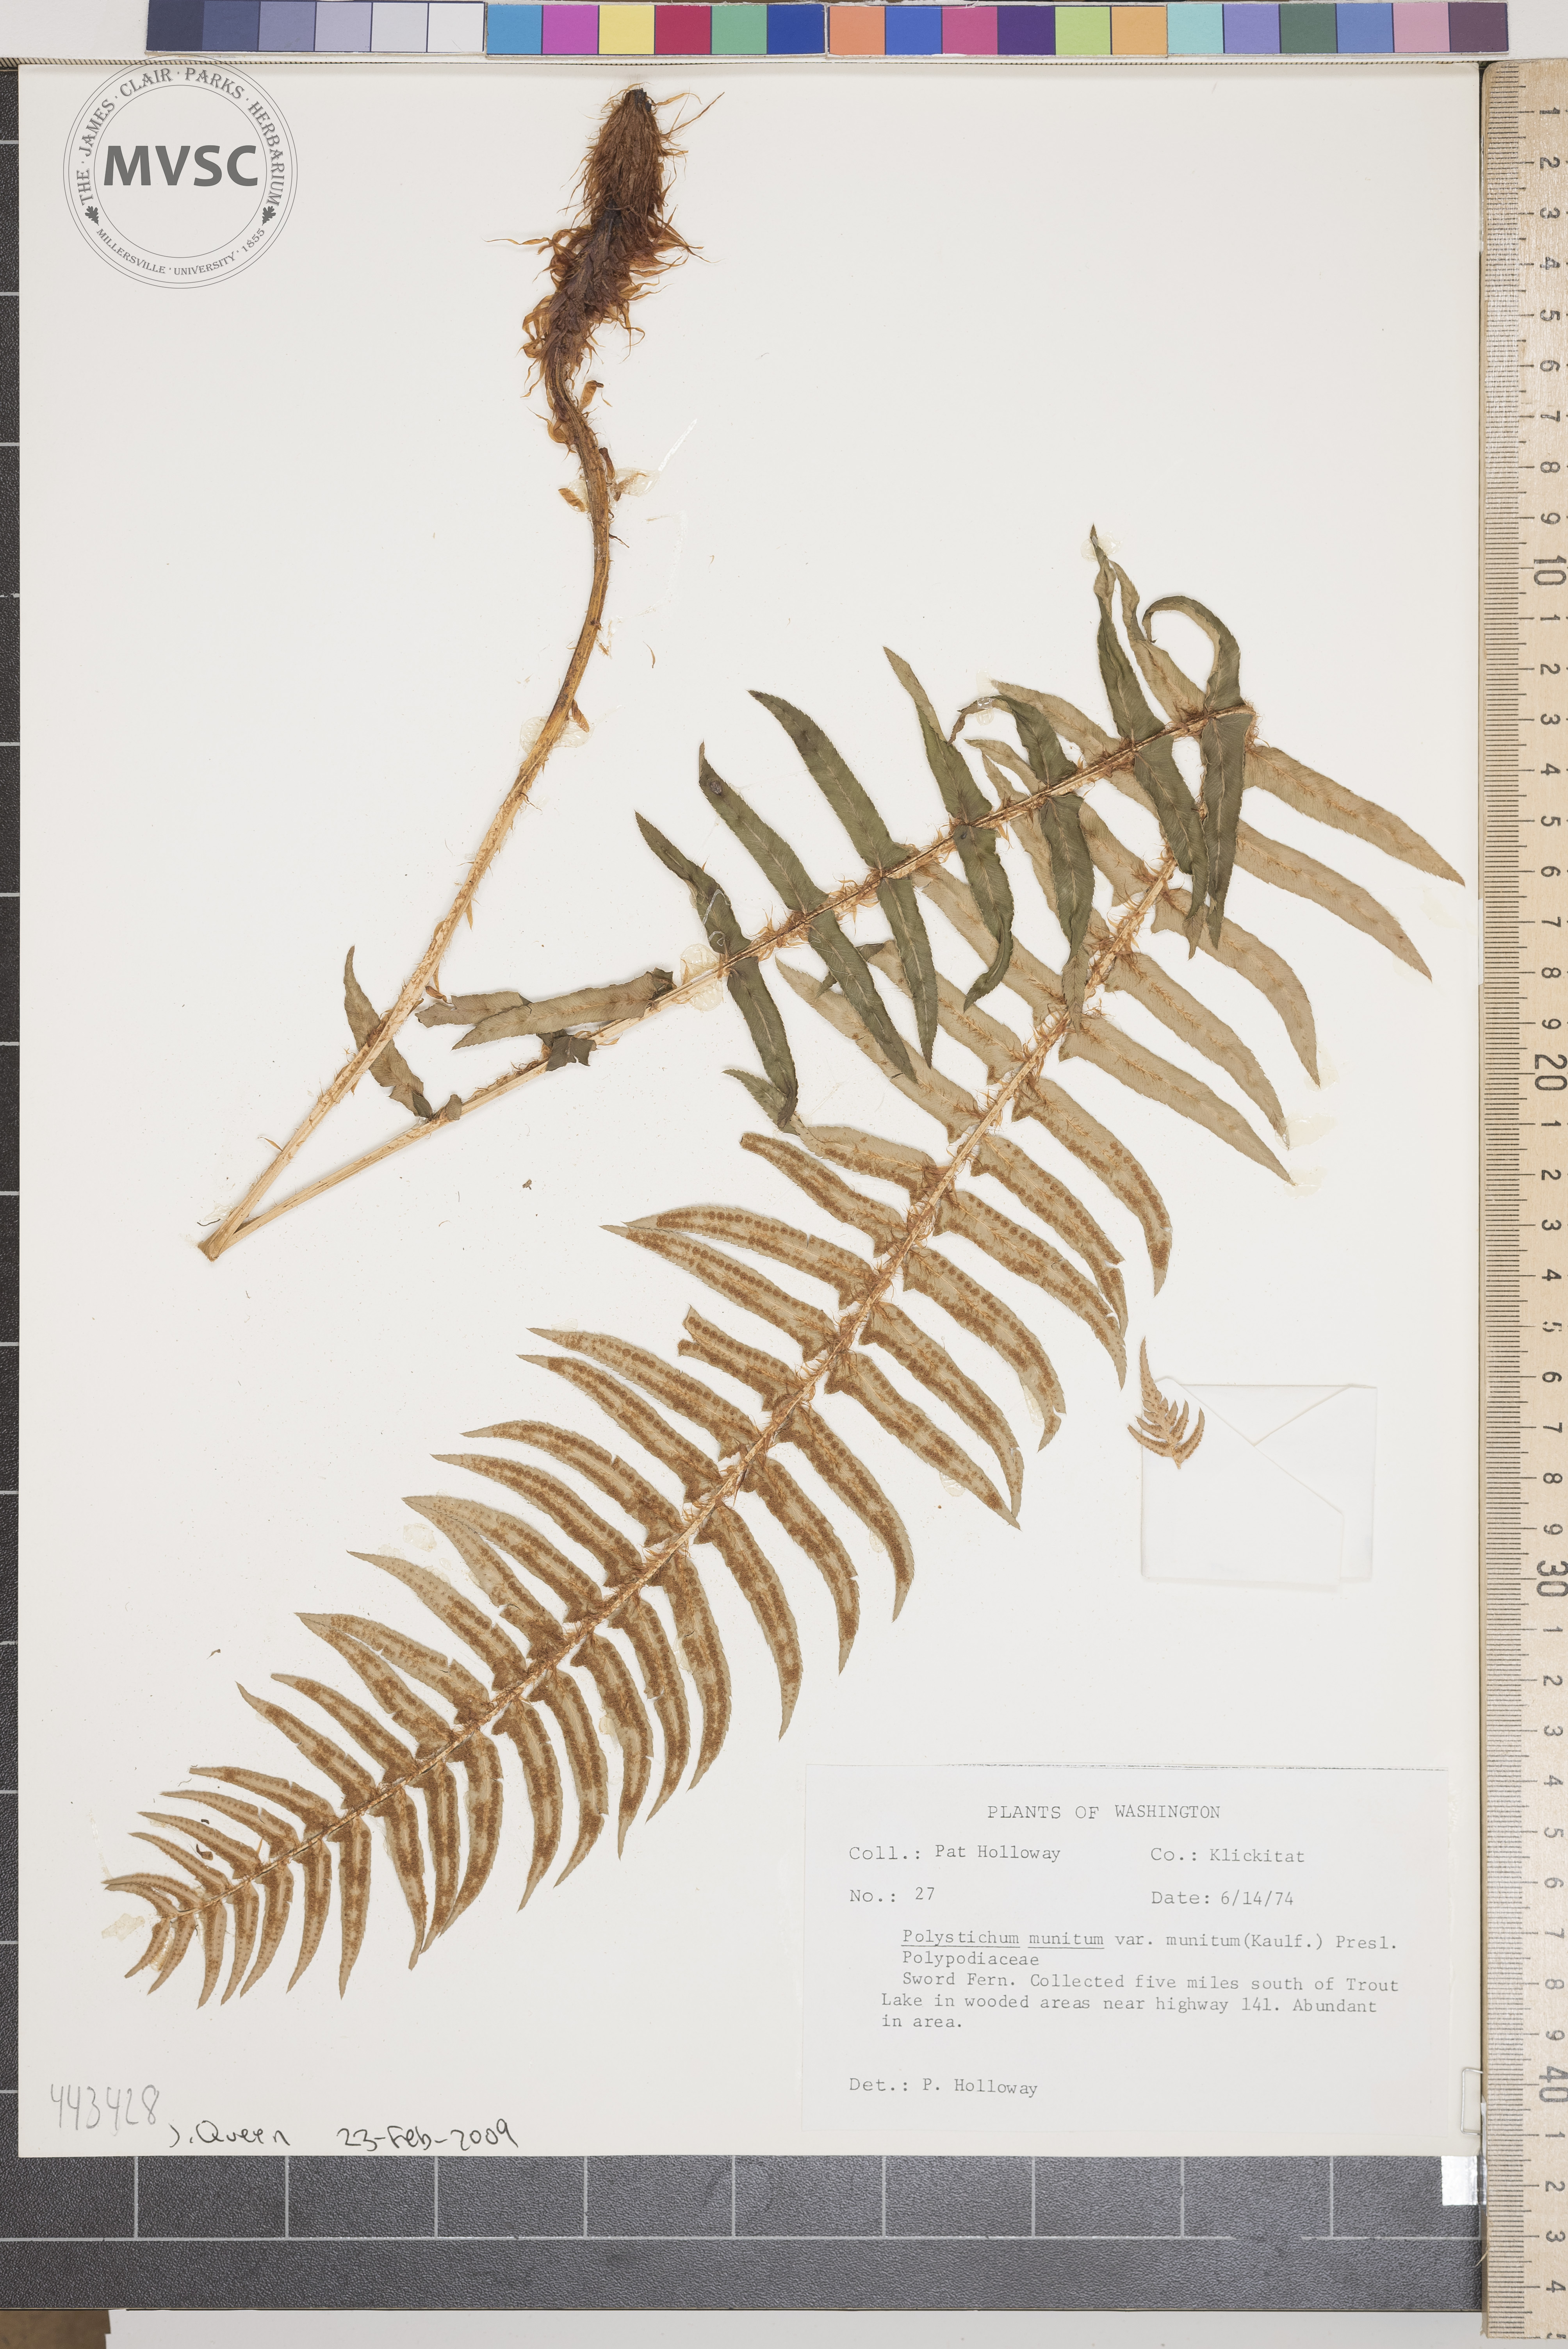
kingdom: Plantae
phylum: Tracheophyta
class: Polypodiopsida
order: Polypodiales
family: Dryopteridaceae
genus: Polystichum
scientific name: Polystichum acrostichoides
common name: Sword fern
